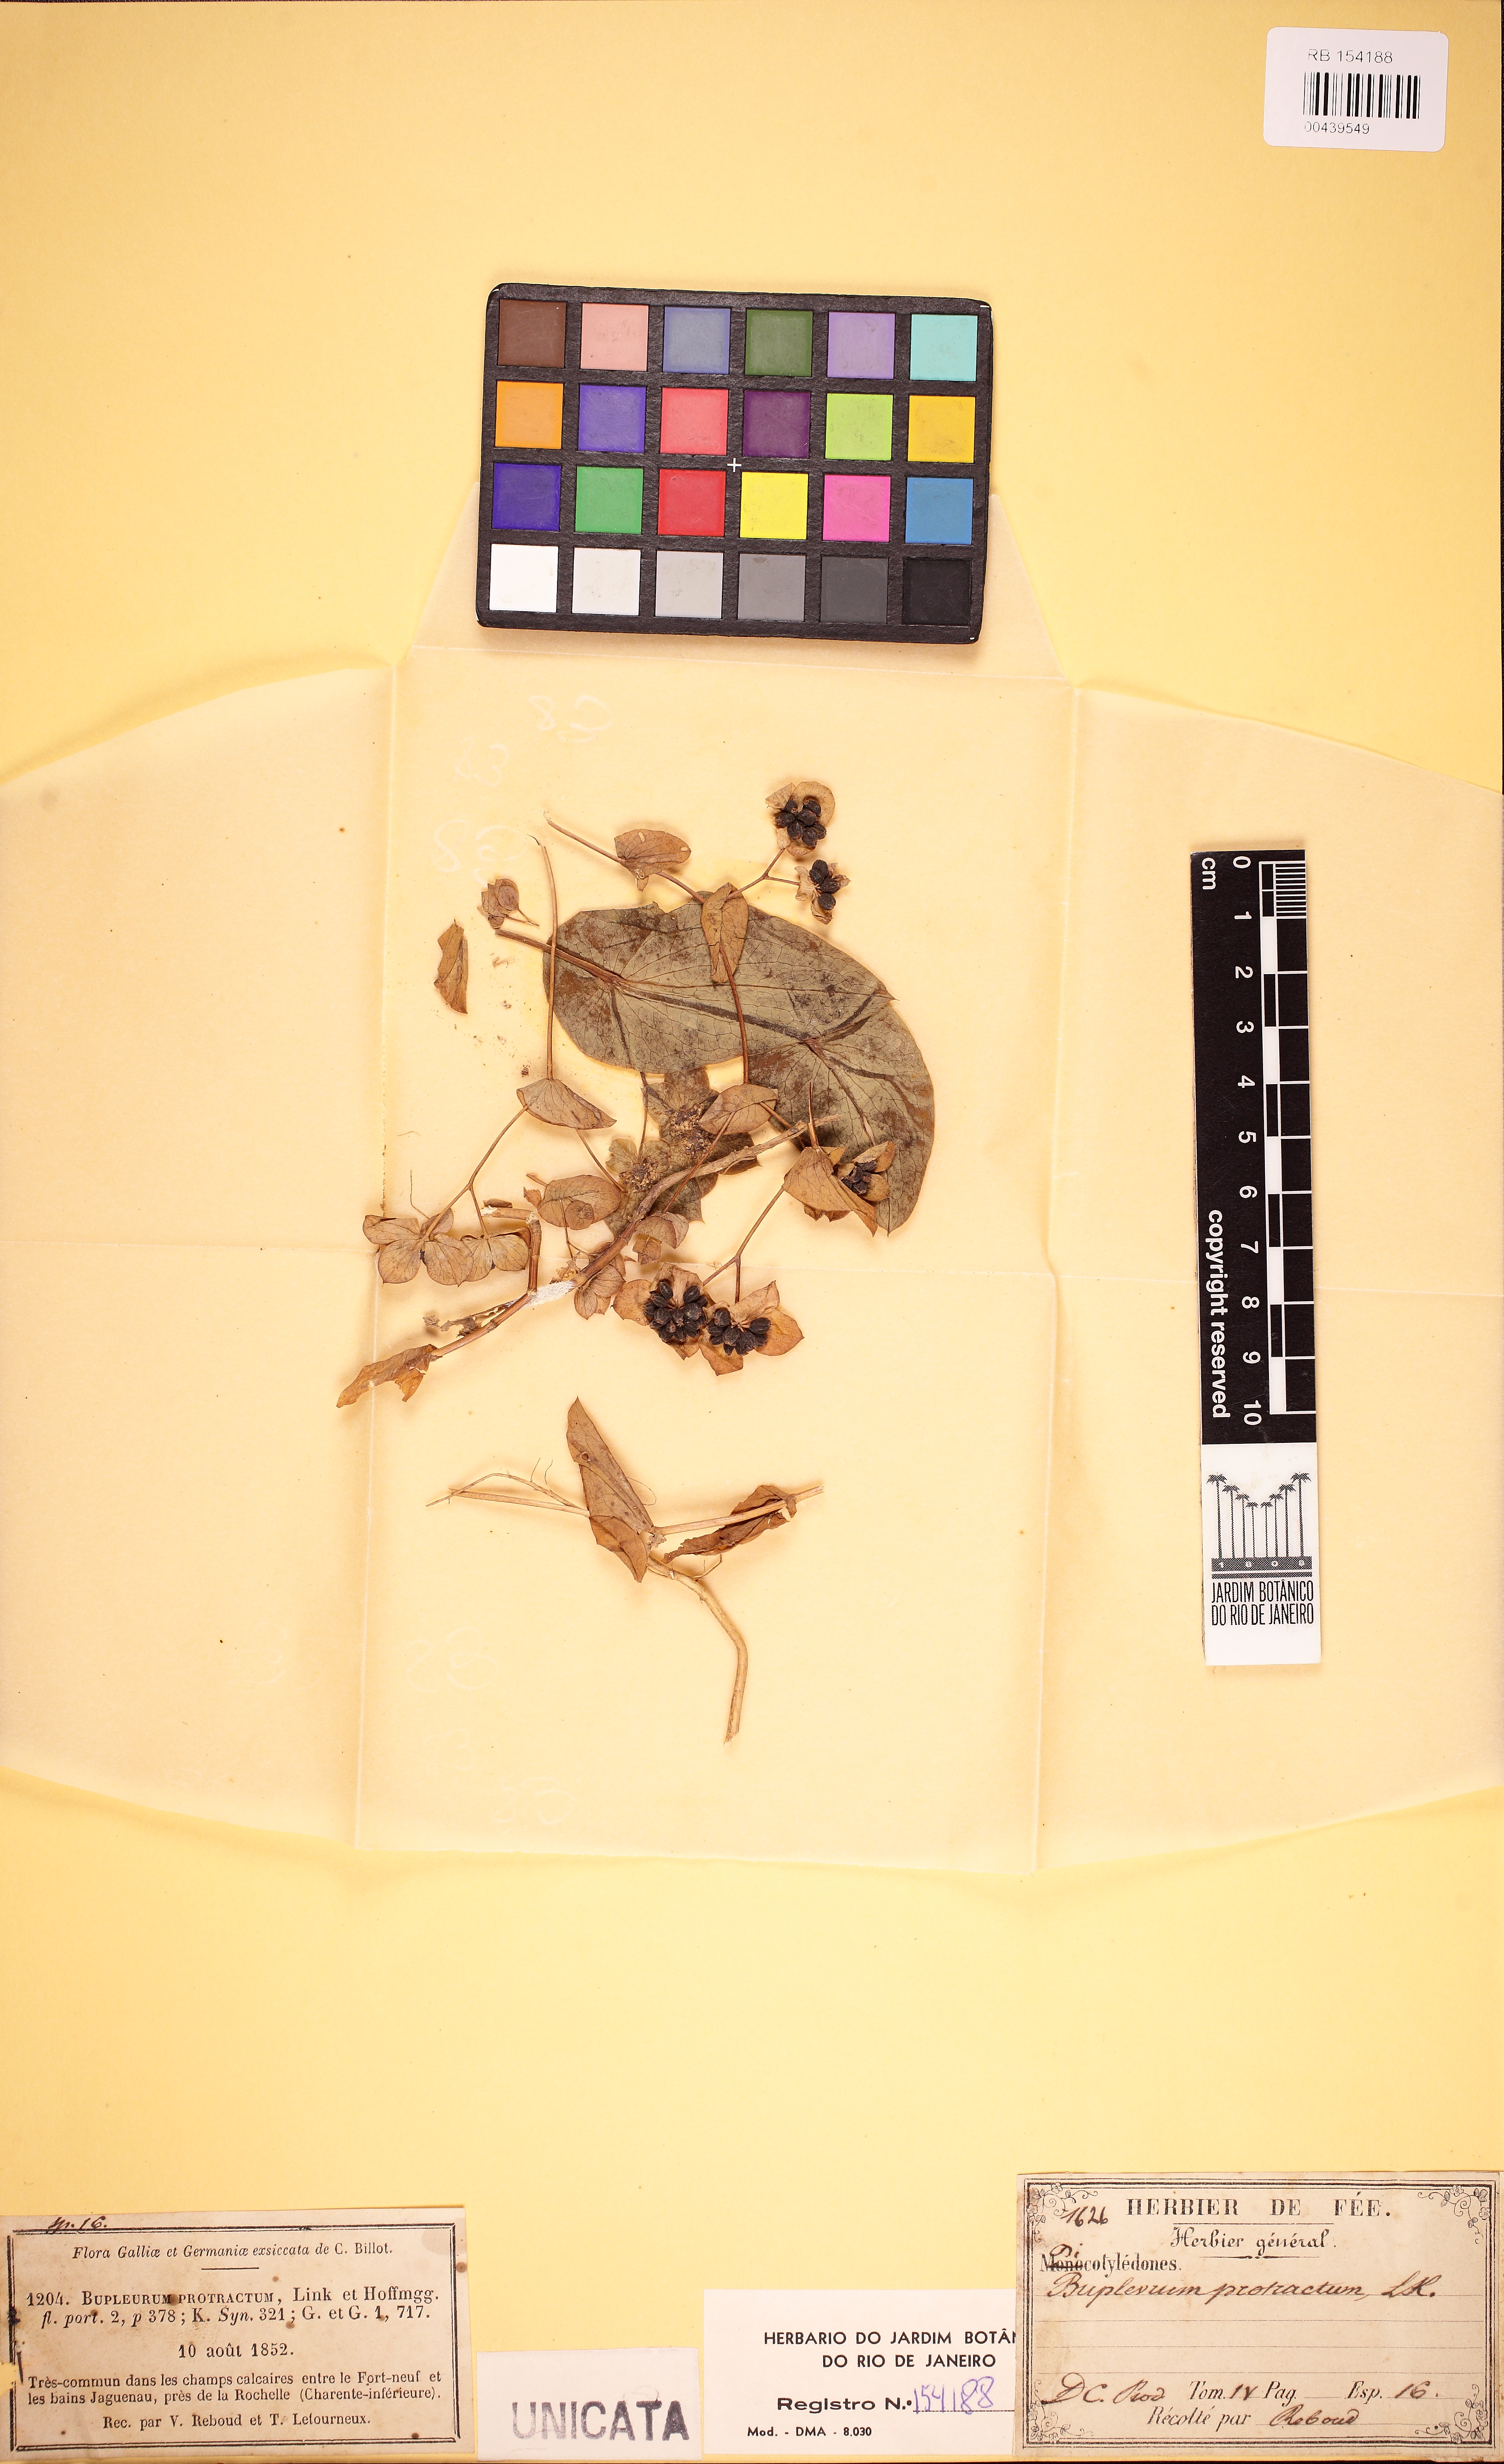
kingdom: Plantae
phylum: Tracheophyta
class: Magnoliopsida
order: Apiales
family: Apiaceae
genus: Bupleurum
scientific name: Bupleurum subovatum
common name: False thorow-wax
